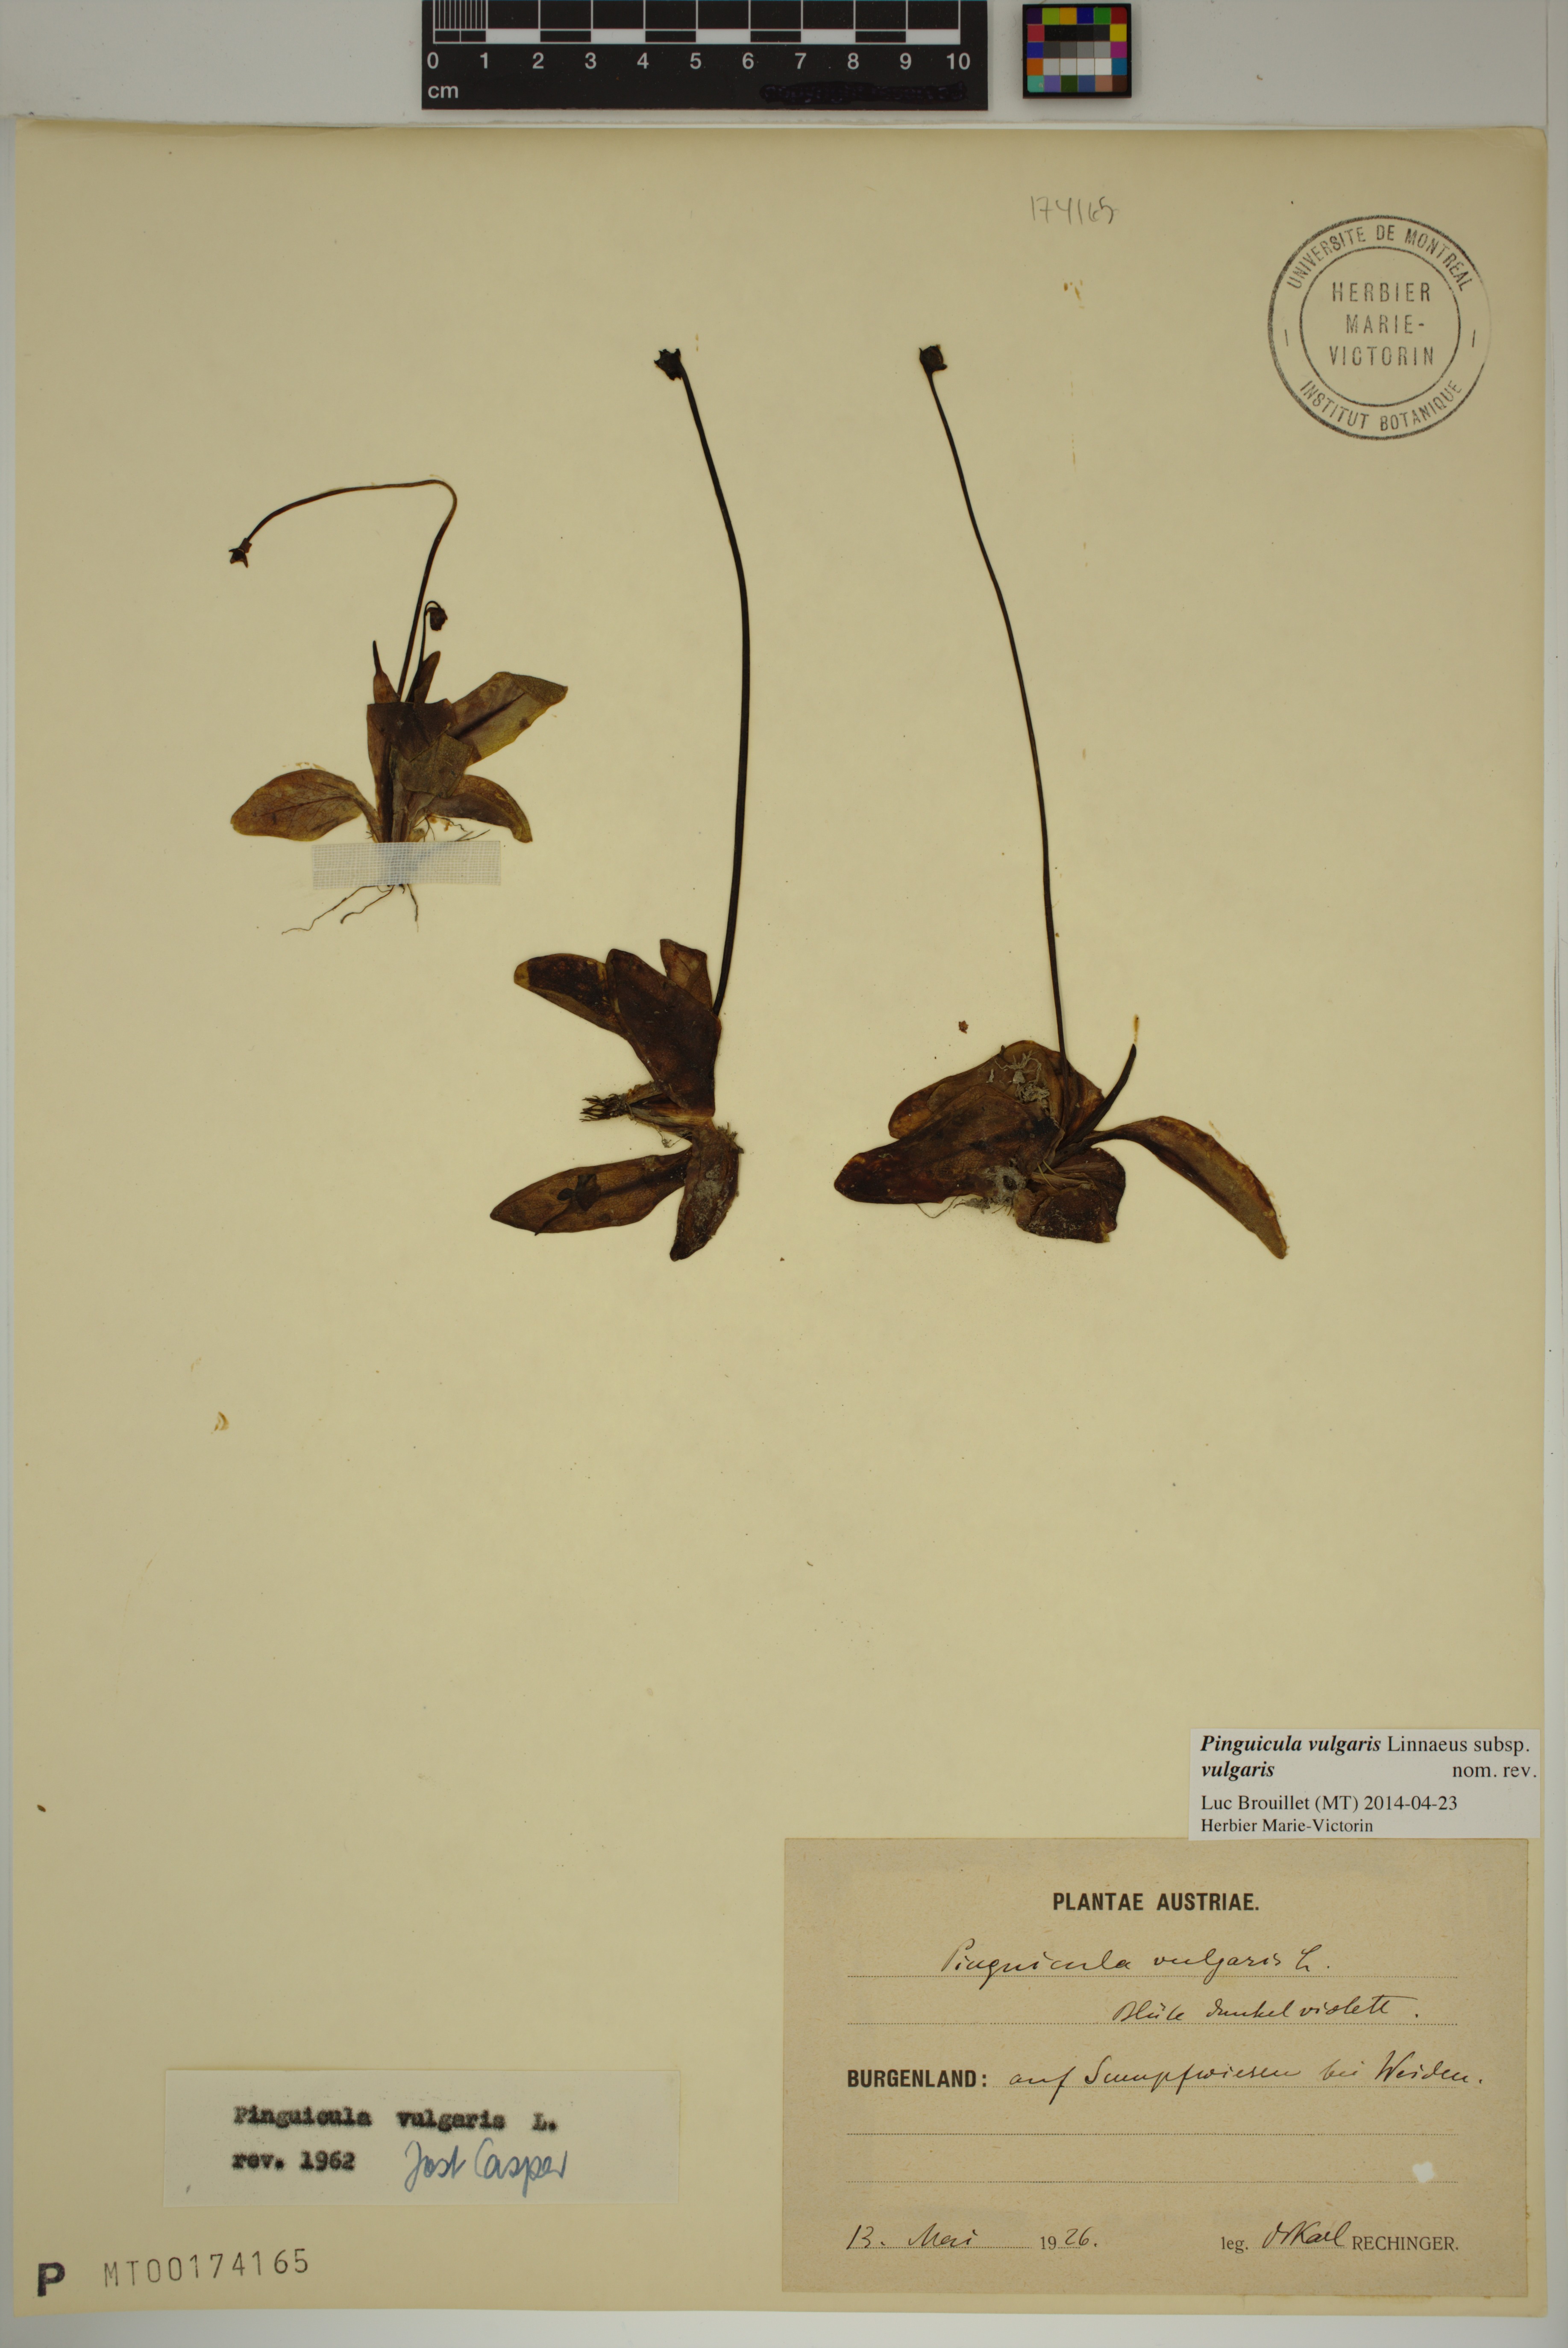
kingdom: Plantae
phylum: Tracheophyta
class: Magnoliopsida
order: Lamiales
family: Lentibulariaceae
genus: Pinguicula
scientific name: Pinguicula vulgaris
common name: Common butterwort
